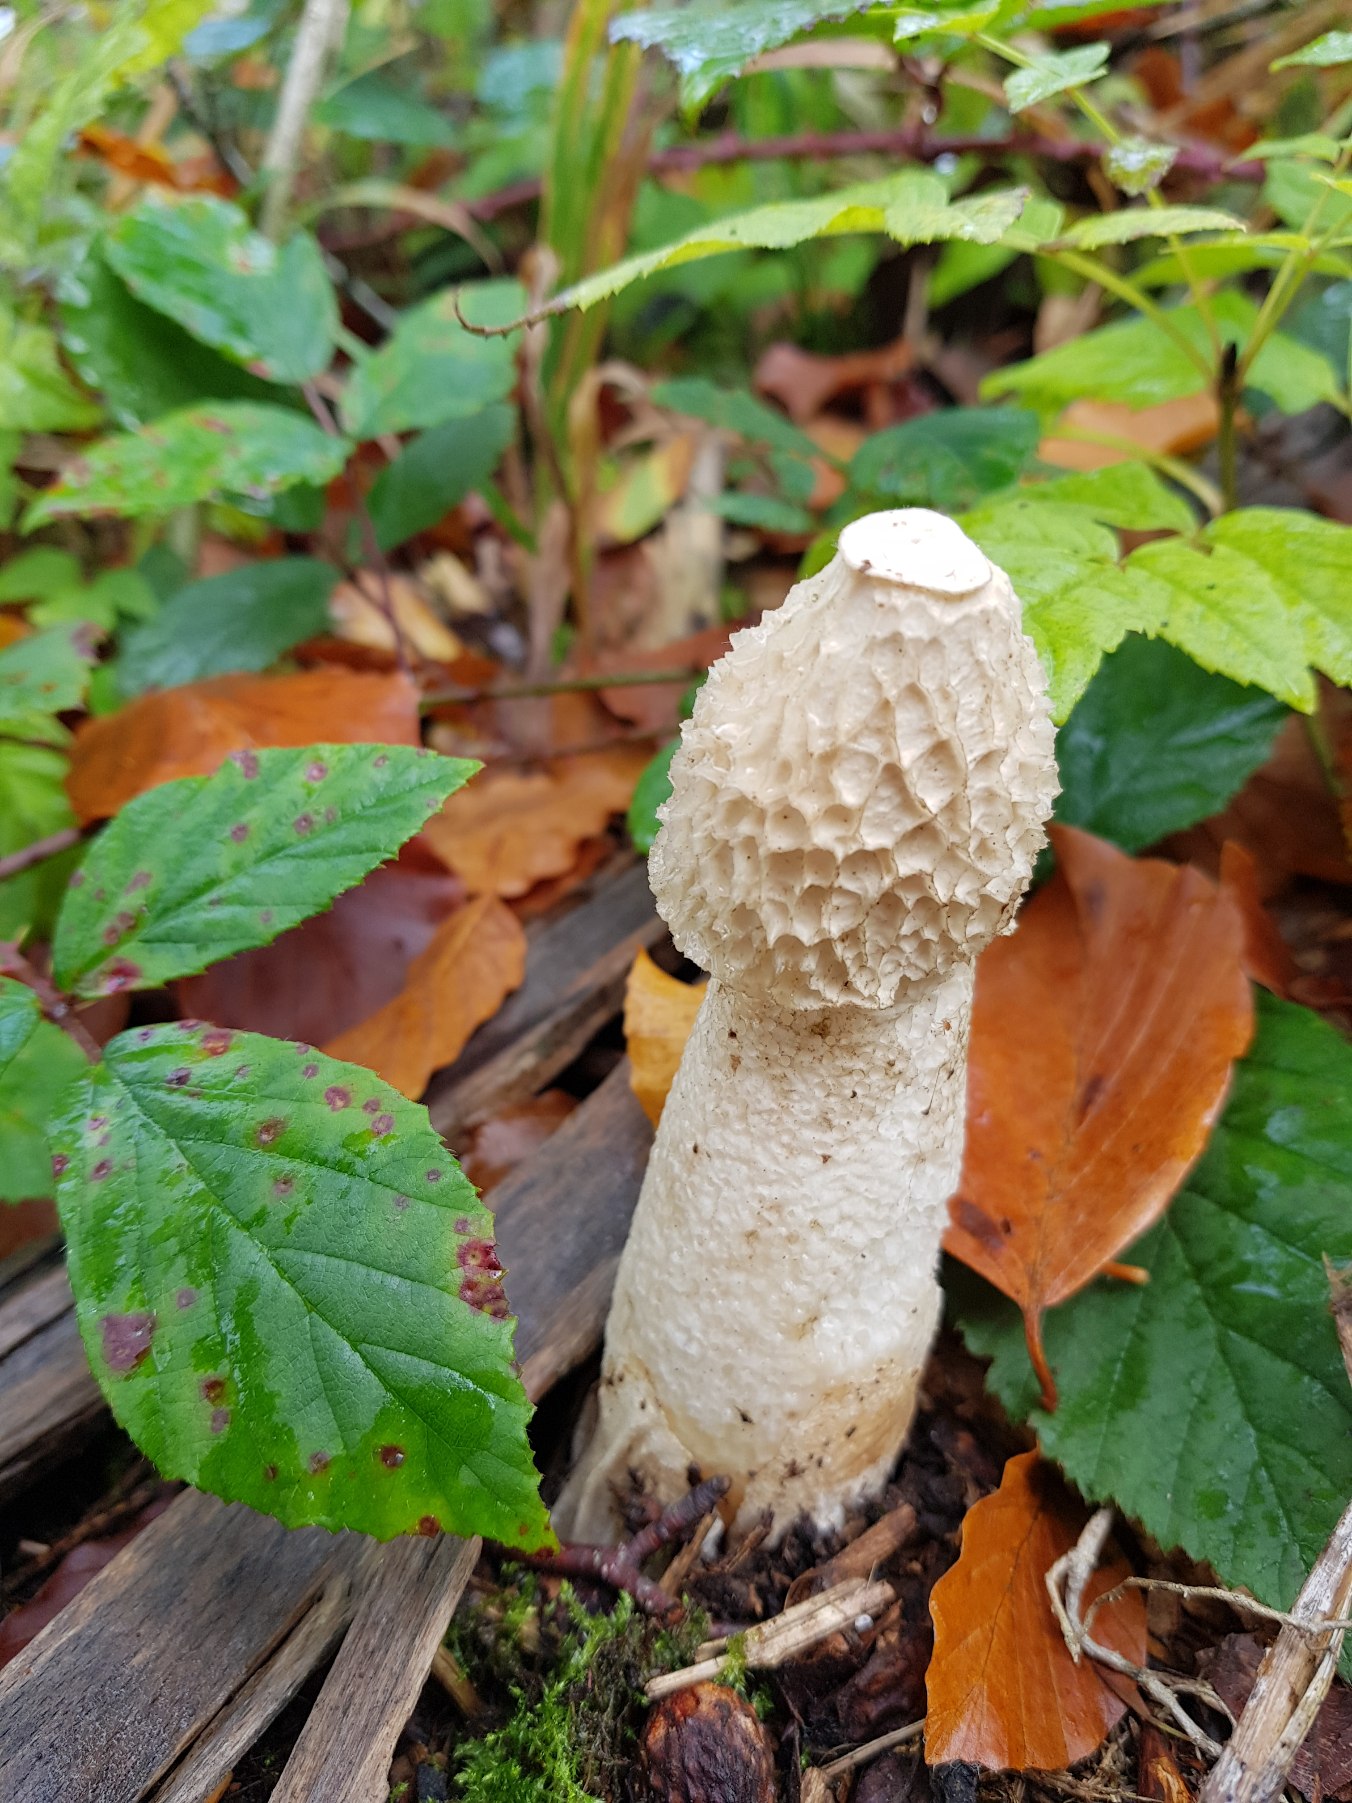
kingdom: Fungi
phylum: Basidiomycota
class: Agaricomycetes
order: Phallales
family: Phallaceae
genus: Phallus
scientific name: Phallus impudicus
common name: Almindelig stinksvamp
